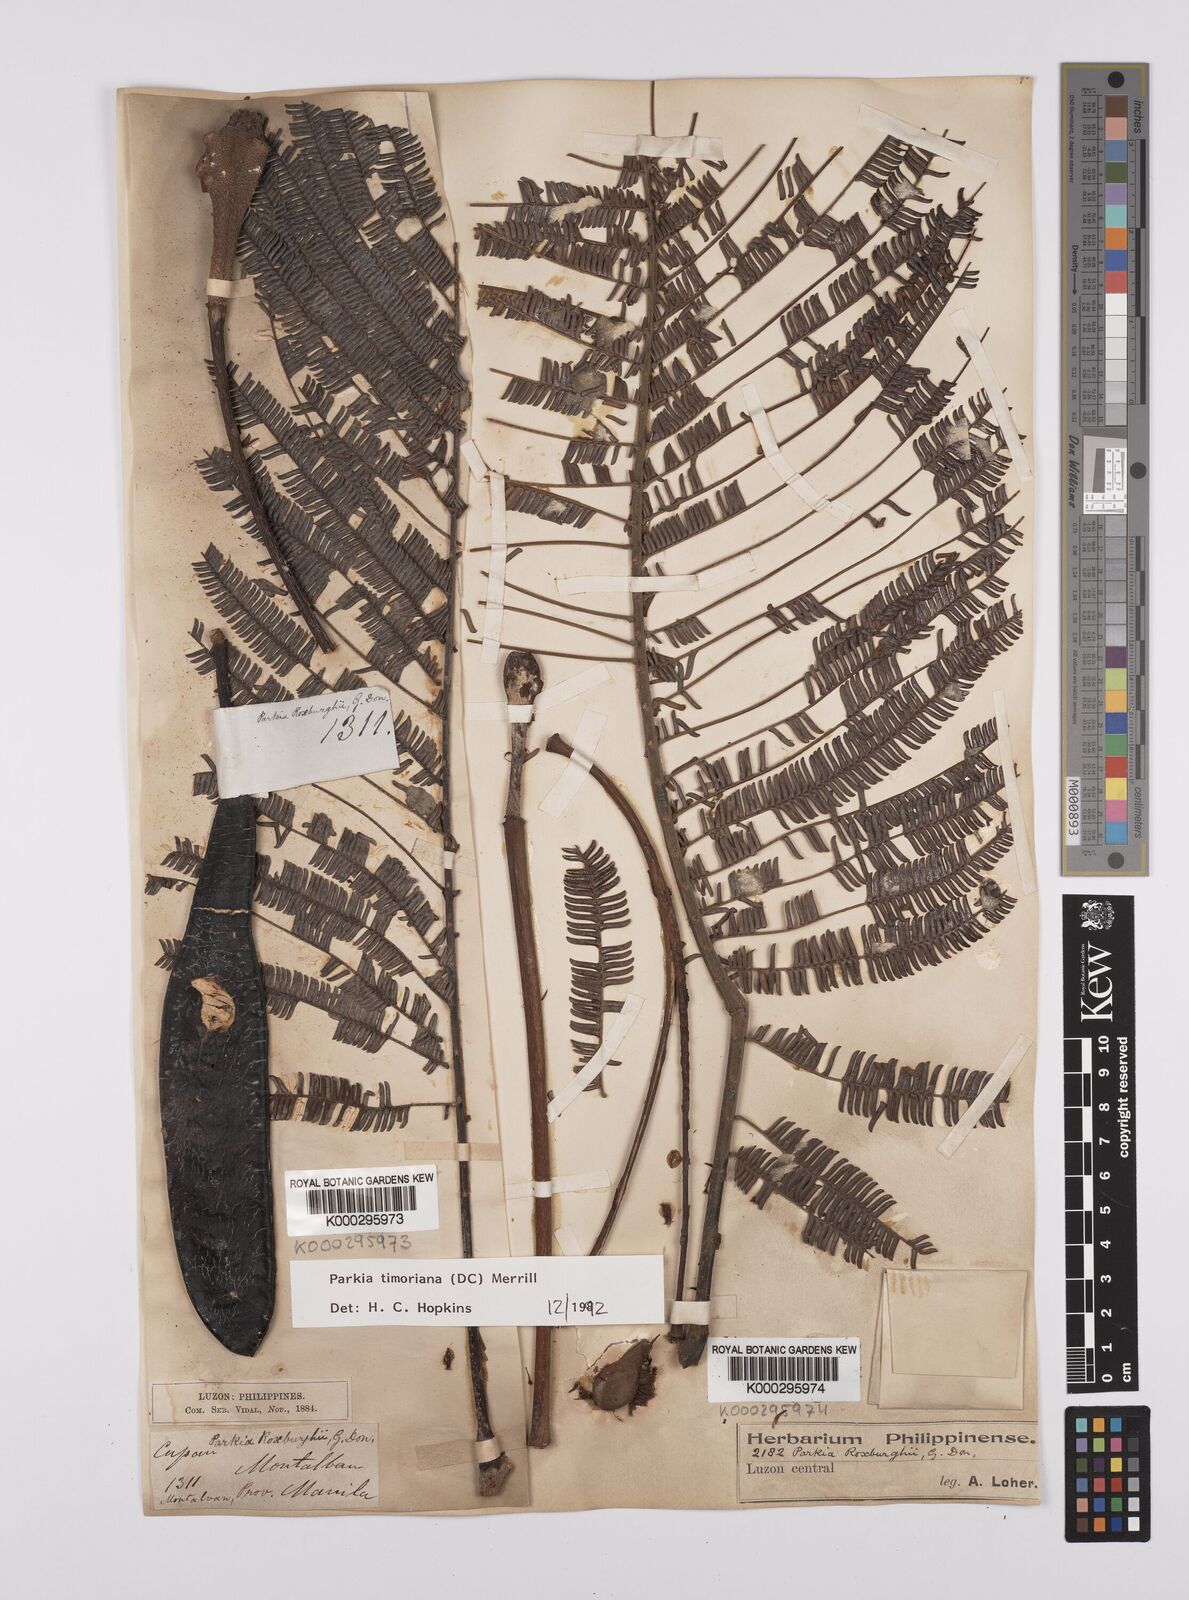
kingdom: Plantae
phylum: Tracheophyta
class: Magnoliopsida
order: Fabales
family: Fabaceae
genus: Parkia
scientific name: Parkia timoriana
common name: Legume
